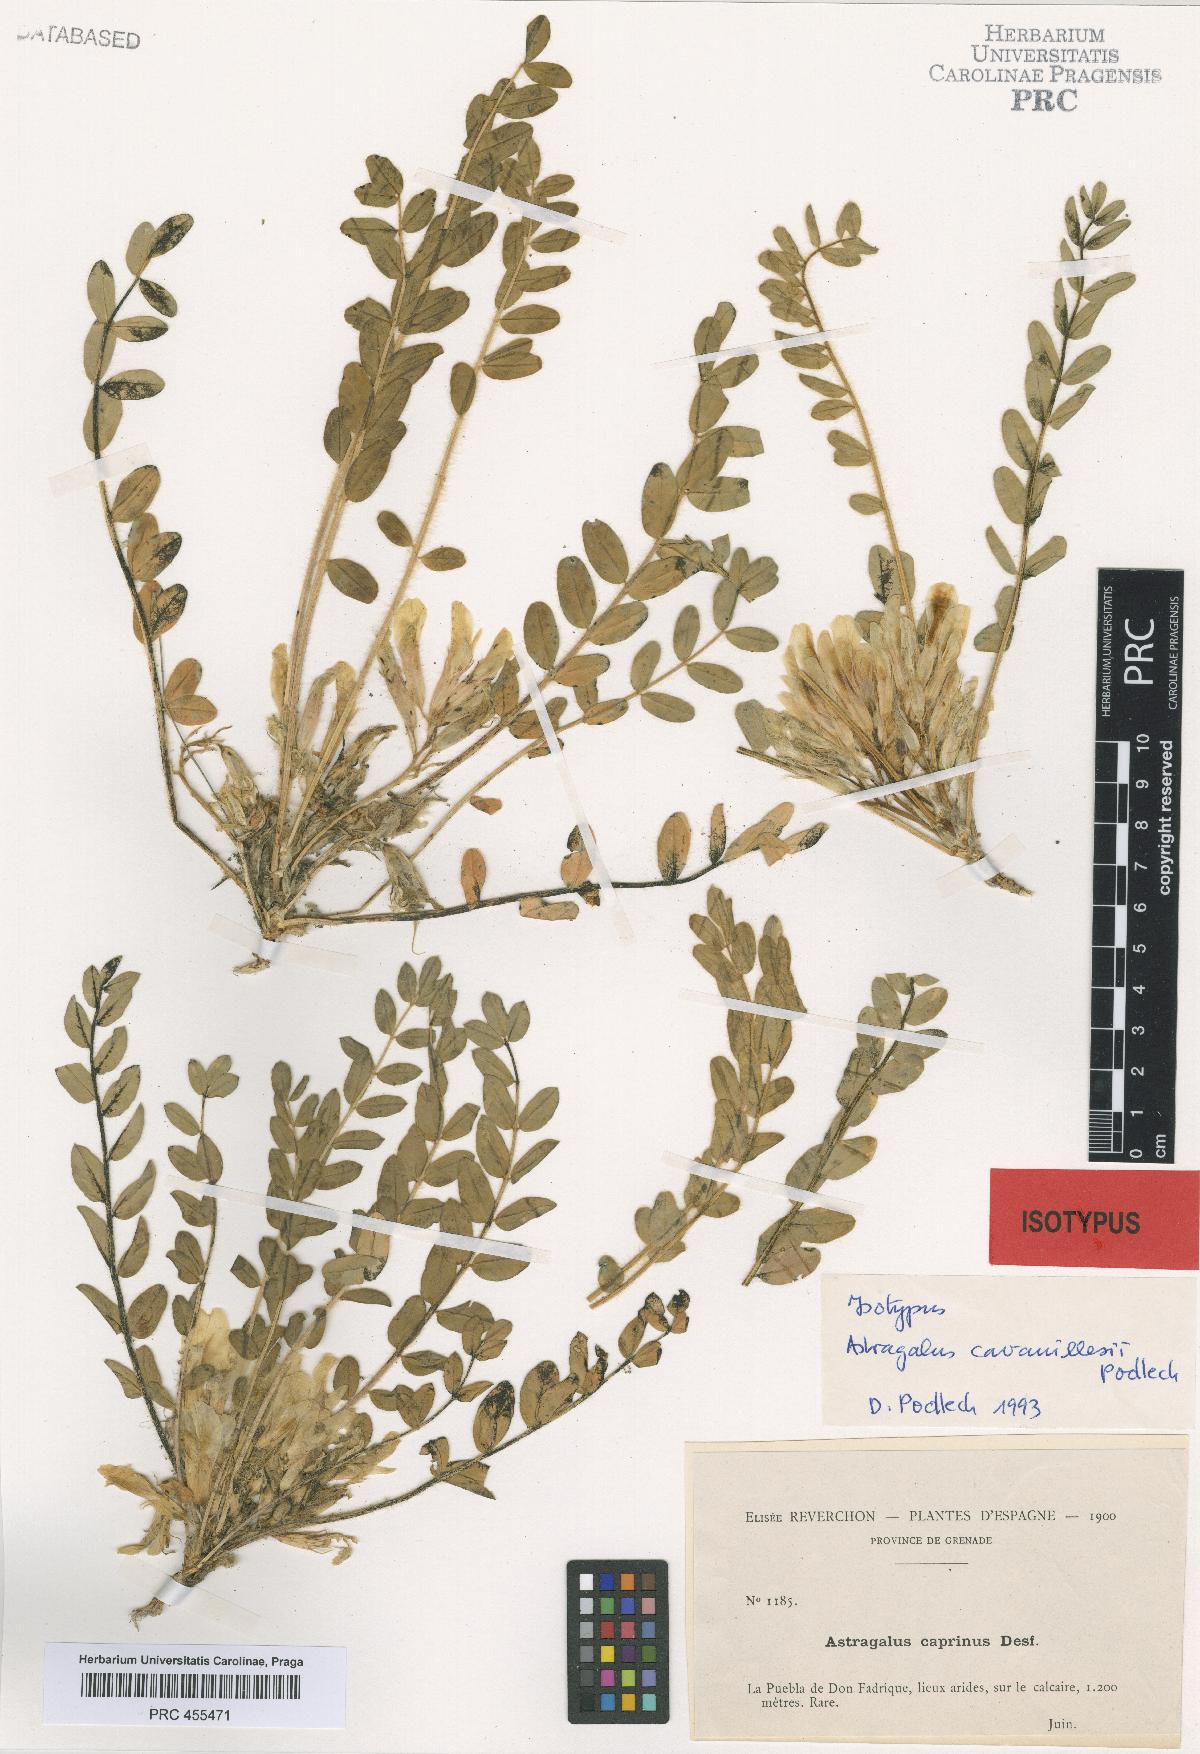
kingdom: Plantae
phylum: Tracheophyta
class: Magnoliopsida
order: Fabales
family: Fabaceae
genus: Astragalus
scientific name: Astragalus cavanillesii
